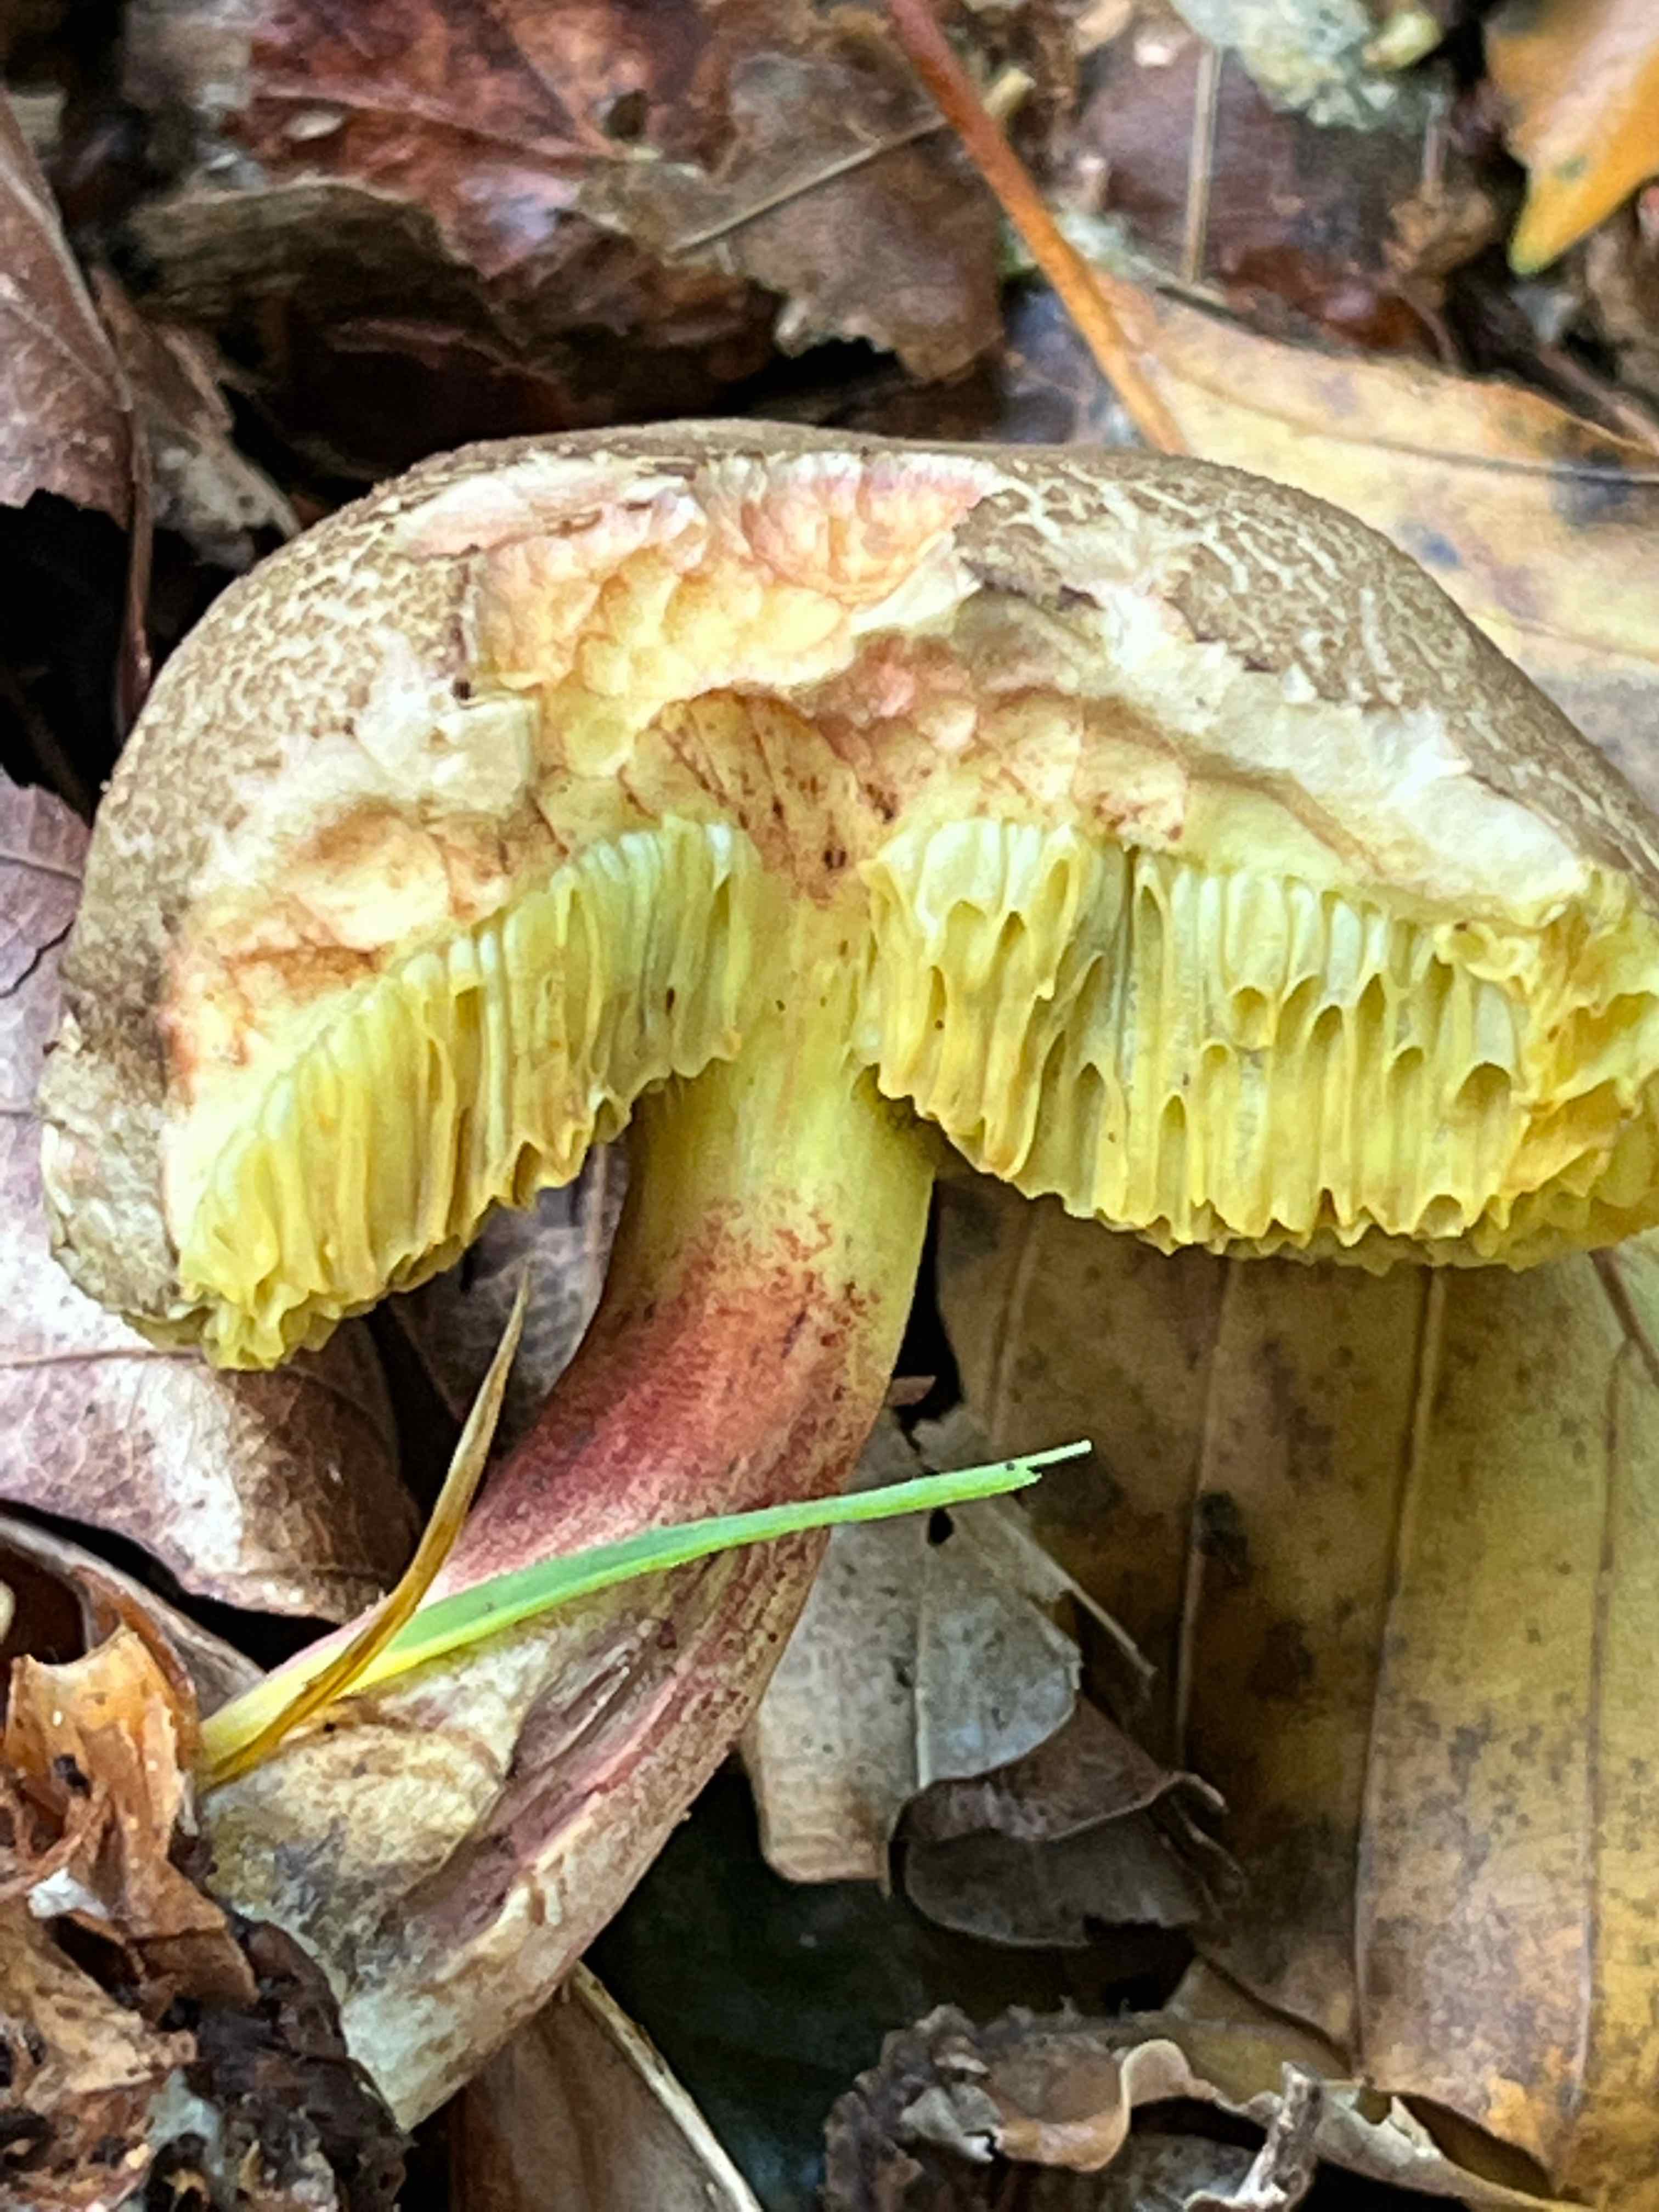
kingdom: Fungi
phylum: Basidiomycota
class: Agaricomycetes
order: Boletales
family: Boletaceae
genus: Xerocomellus
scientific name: Xerocomellus
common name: dværgrørhat
